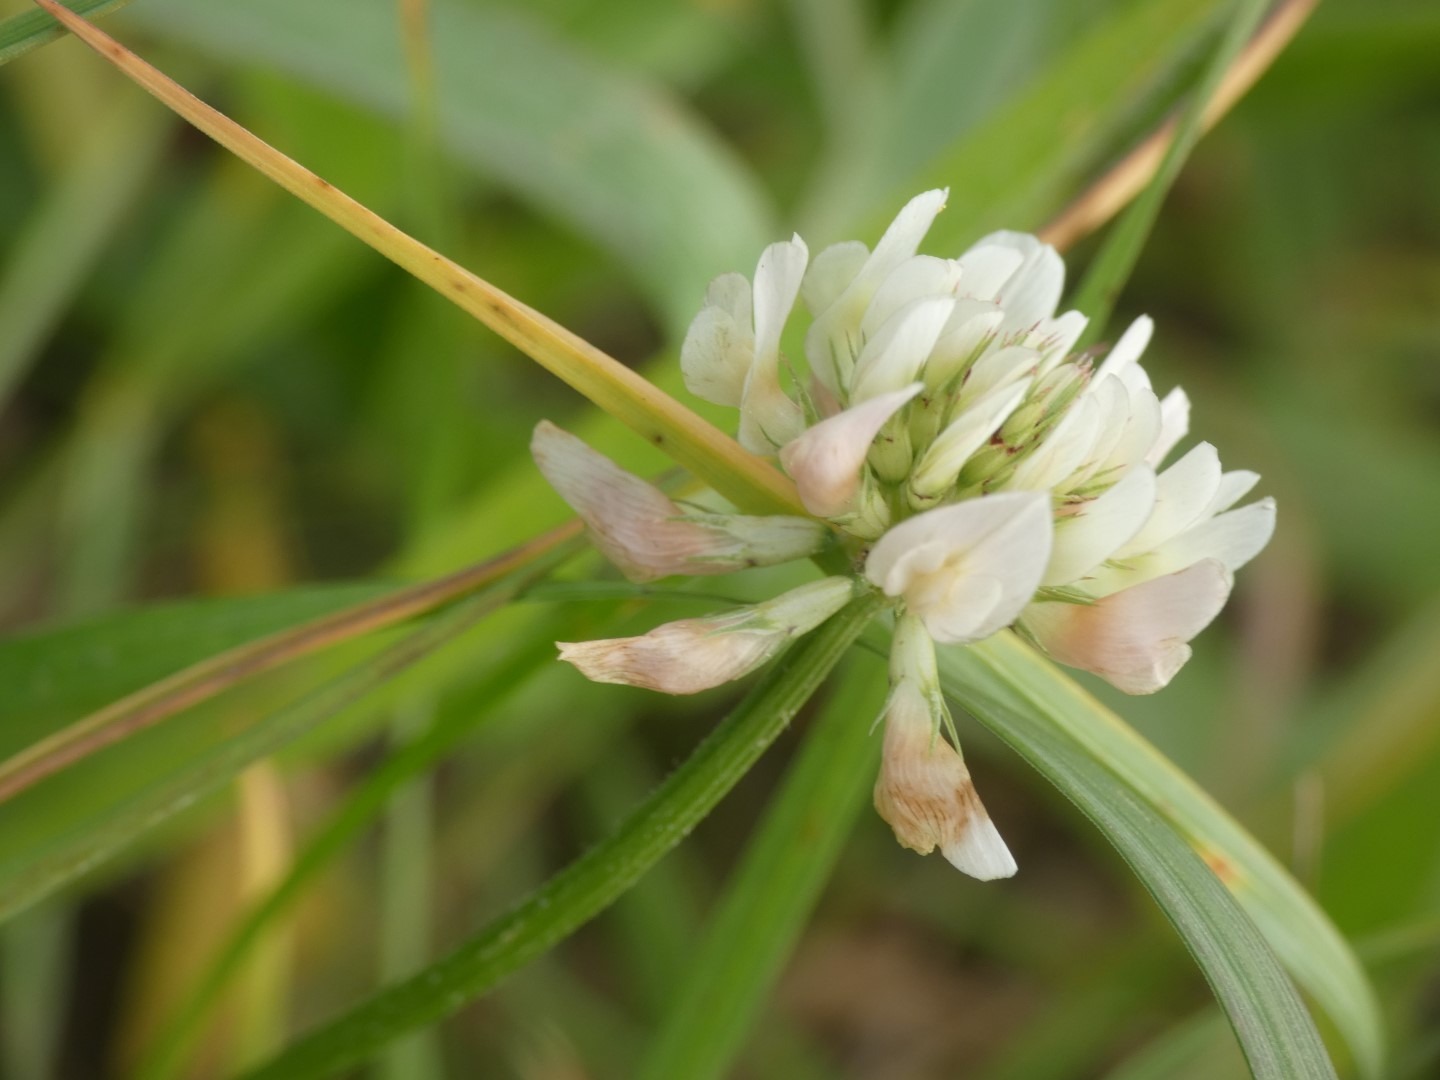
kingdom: Plantae
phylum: Tracheophyta
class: Magnoliopsida
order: Fabales
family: Fabaceae
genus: Trifolium
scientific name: Trifolium repens
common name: Hvid-kløver
